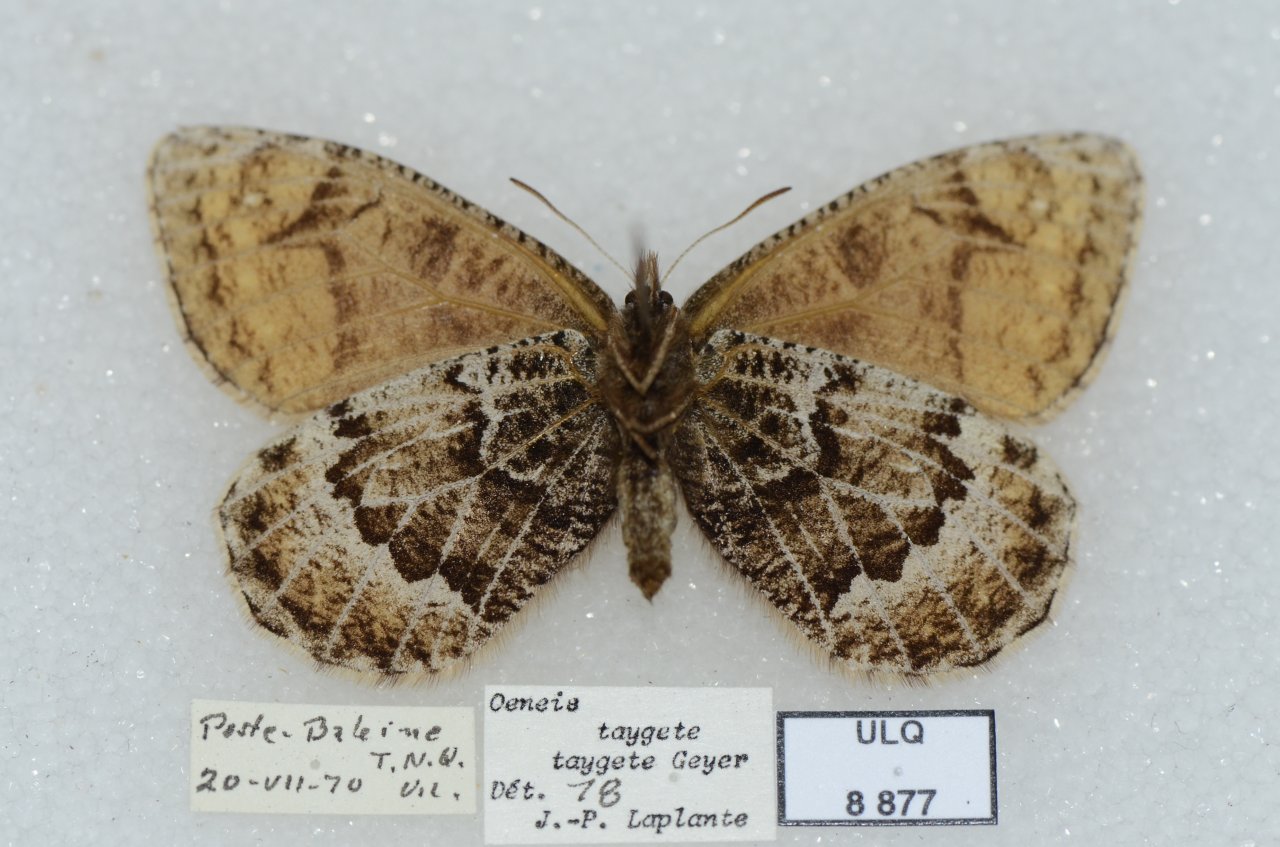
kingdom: Animalia
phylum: Arthropoda
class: Insecta
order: Lepidoptera
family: Nymphalidae
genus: Oeneis
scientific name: Oeneis bore
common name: White-veined Arctic
